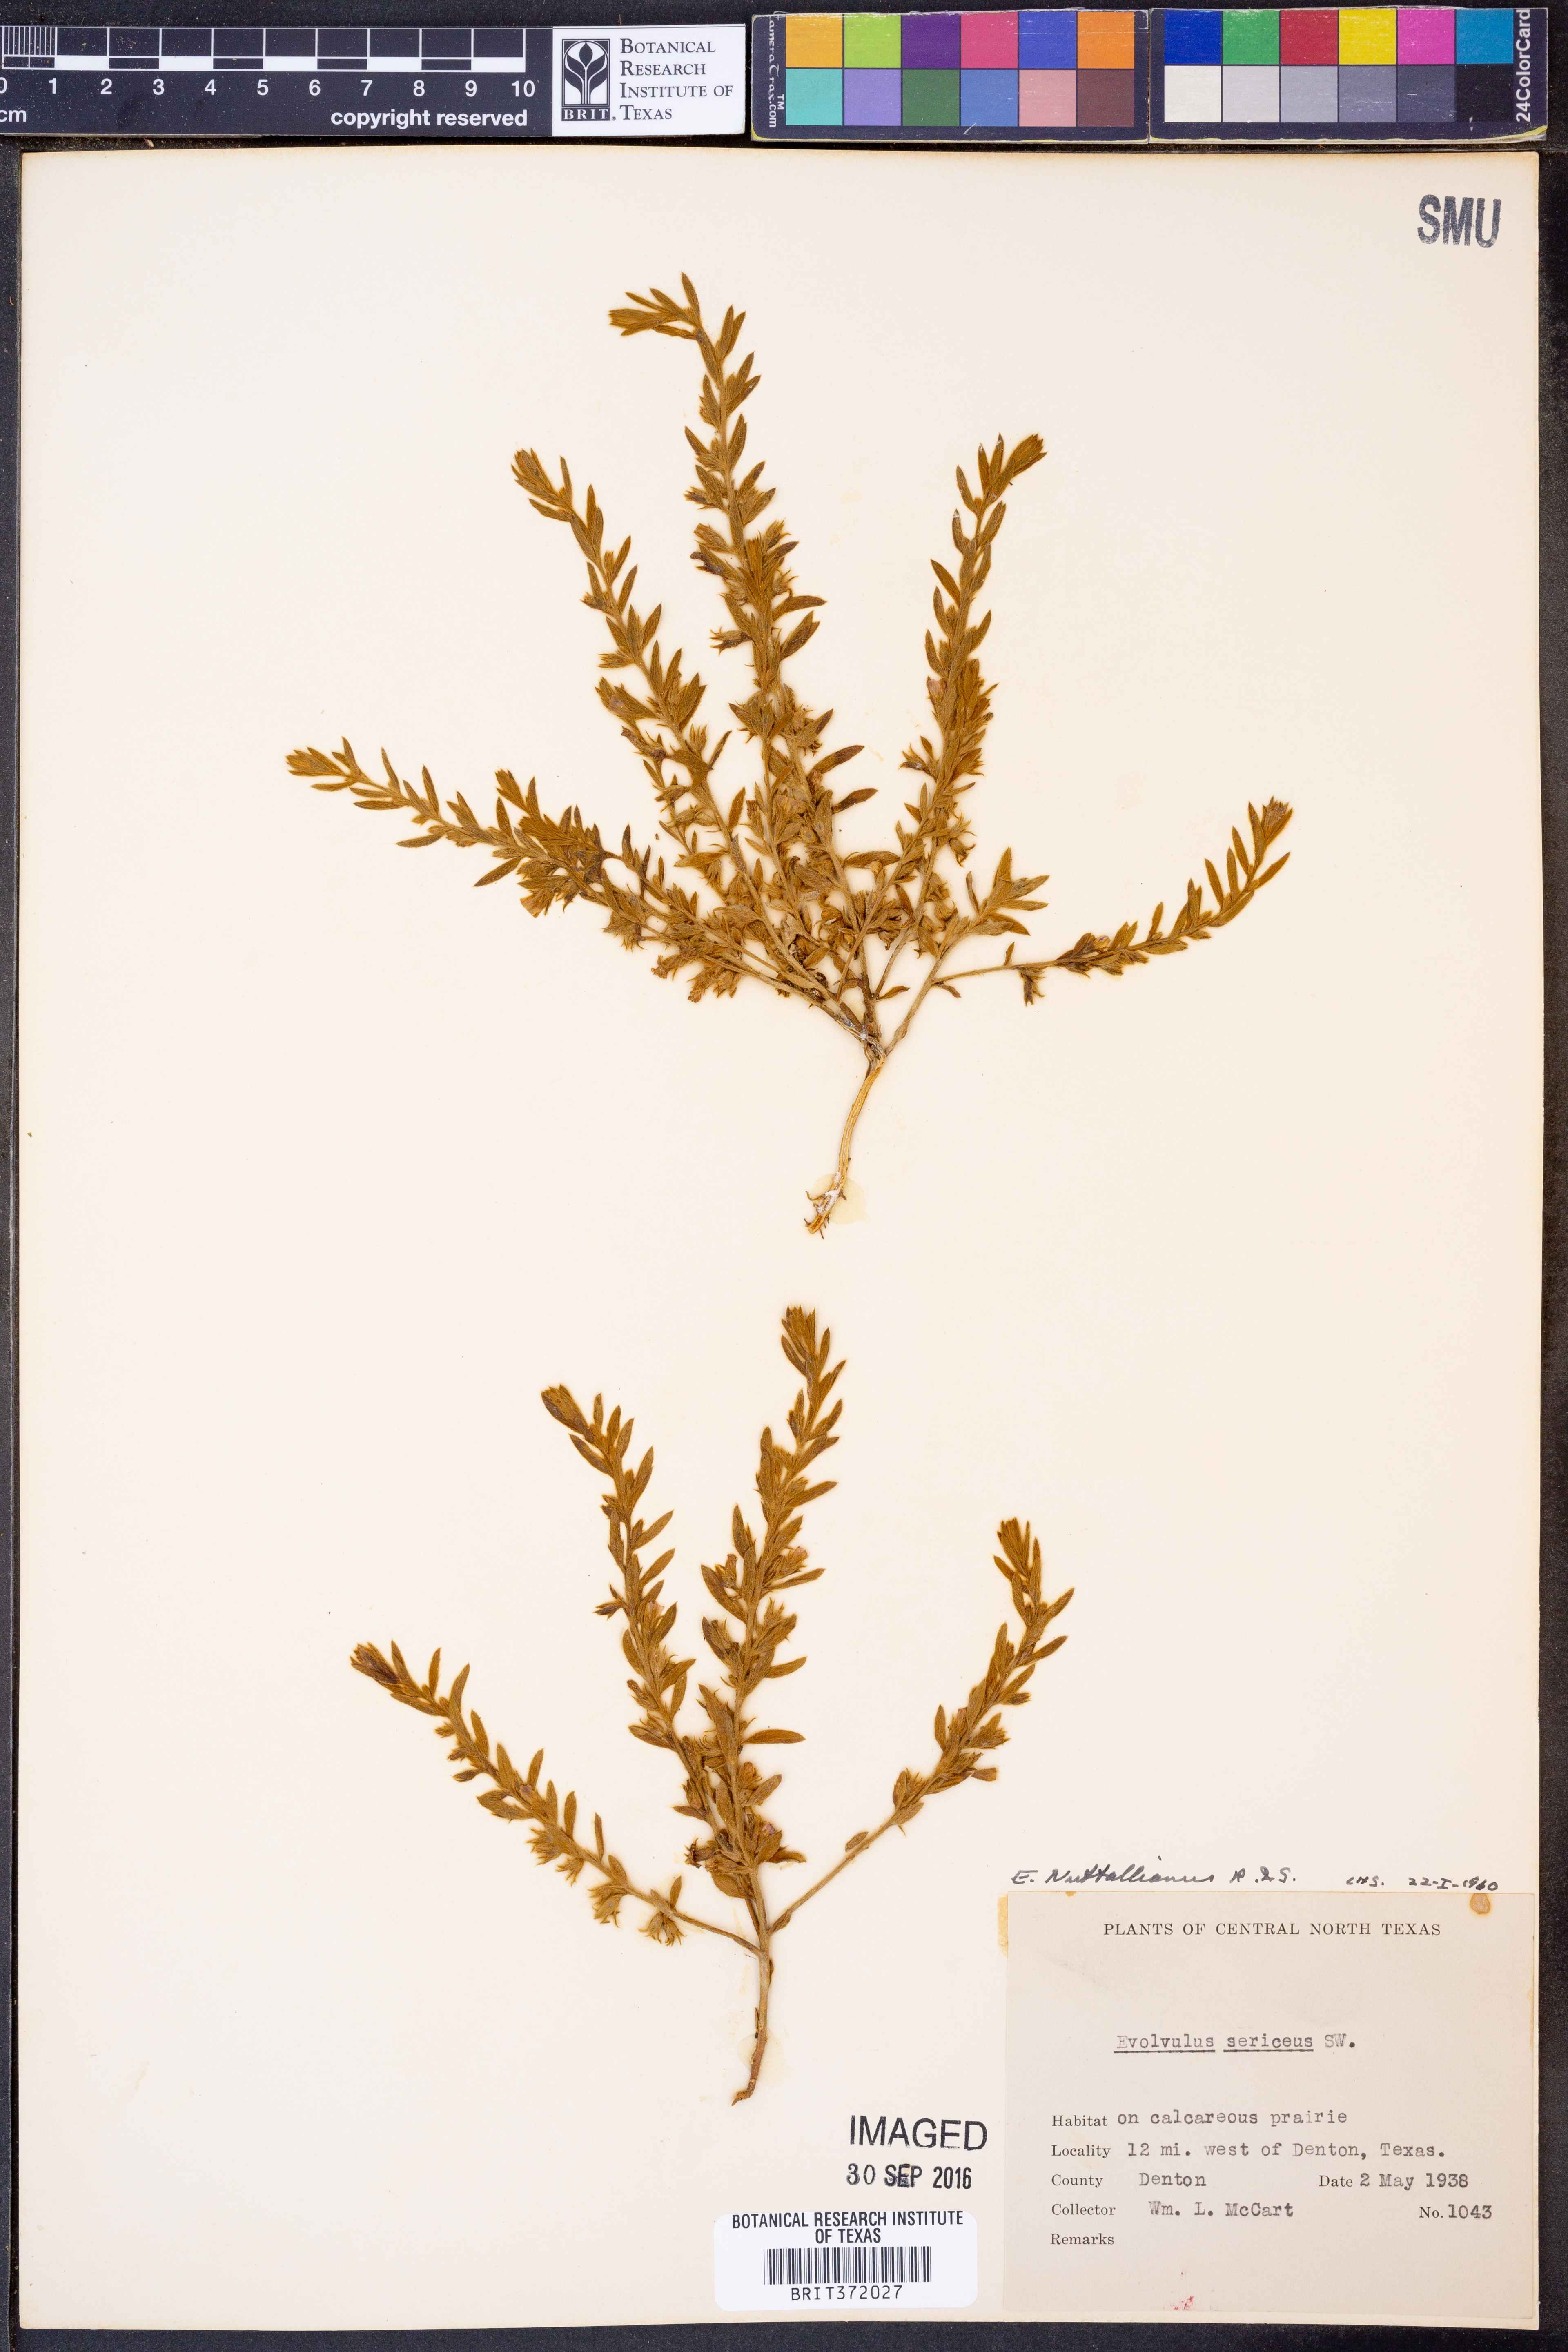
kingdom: Plantae
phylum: Tracheophyta
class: Magnoliopsida
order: Solanales
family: Convolvulaceae
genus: Evolvulus
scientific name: Evolvulus nuttallianus
